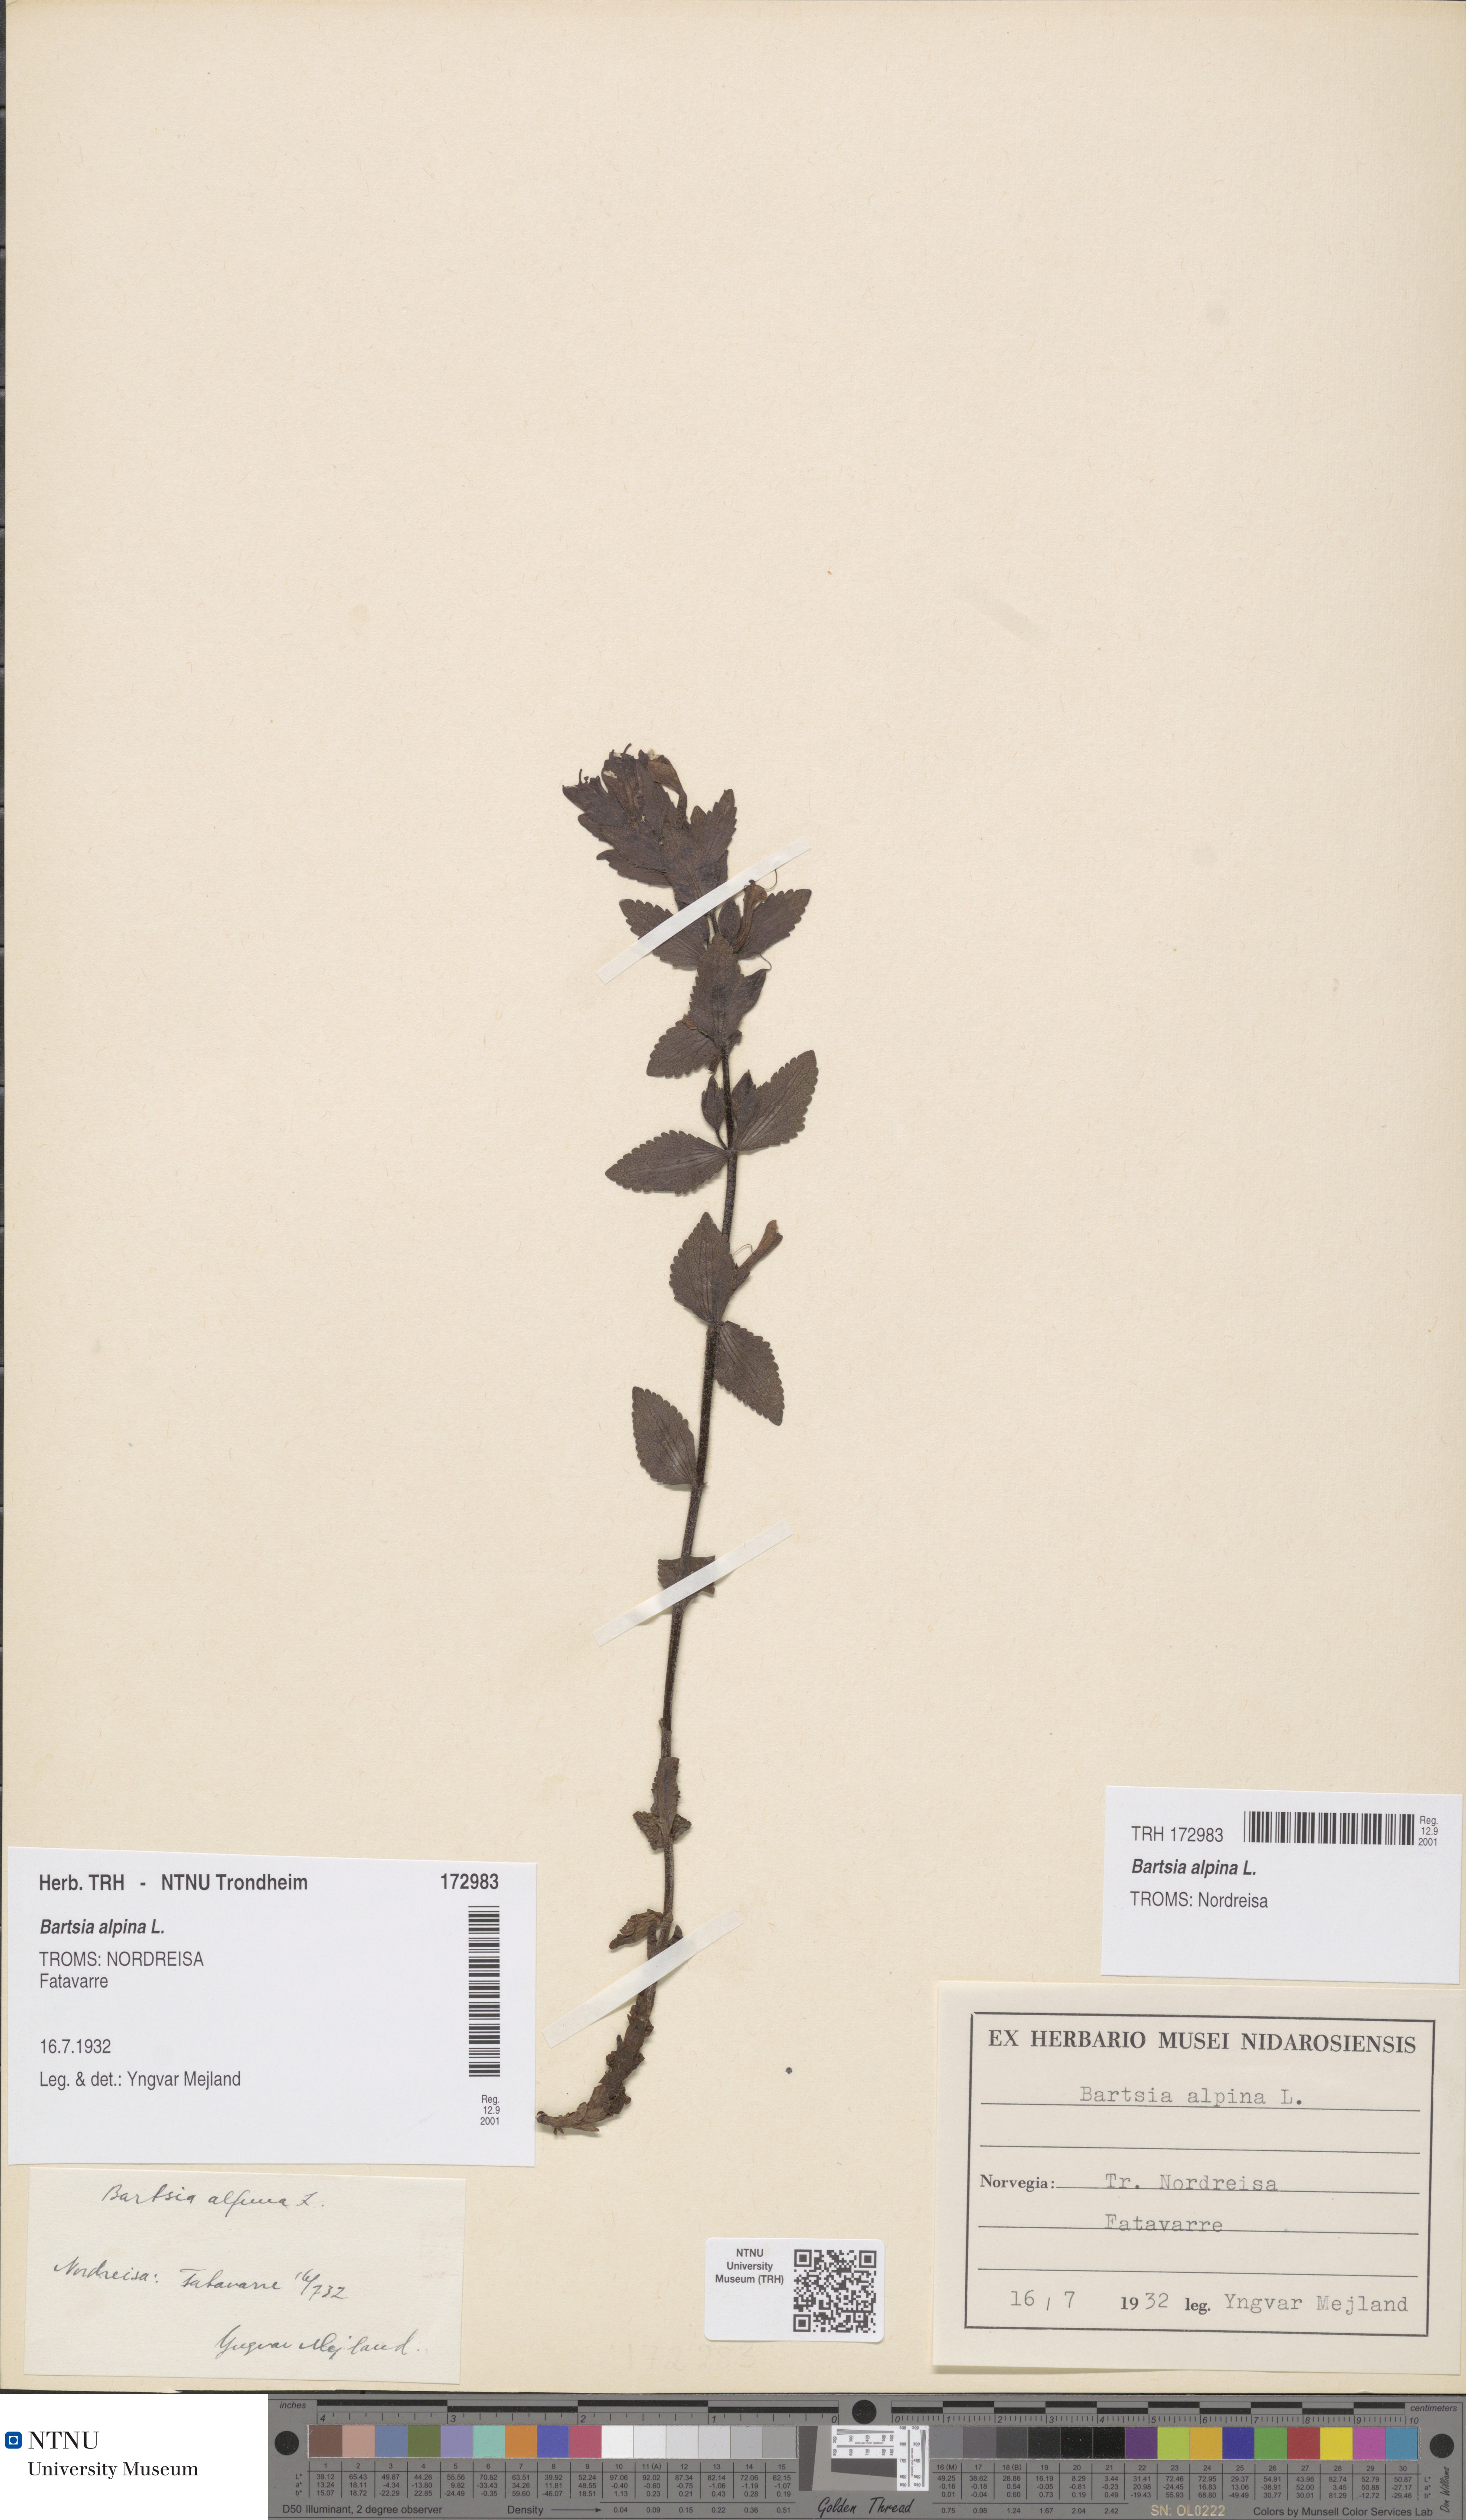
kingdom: Plantae
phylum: Tracheophyta
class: Magnoliopsida
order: Lamiales
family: Orobanchaceae
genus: Bartsia
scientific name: Bartsia alpina
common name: Alpine bartsia
